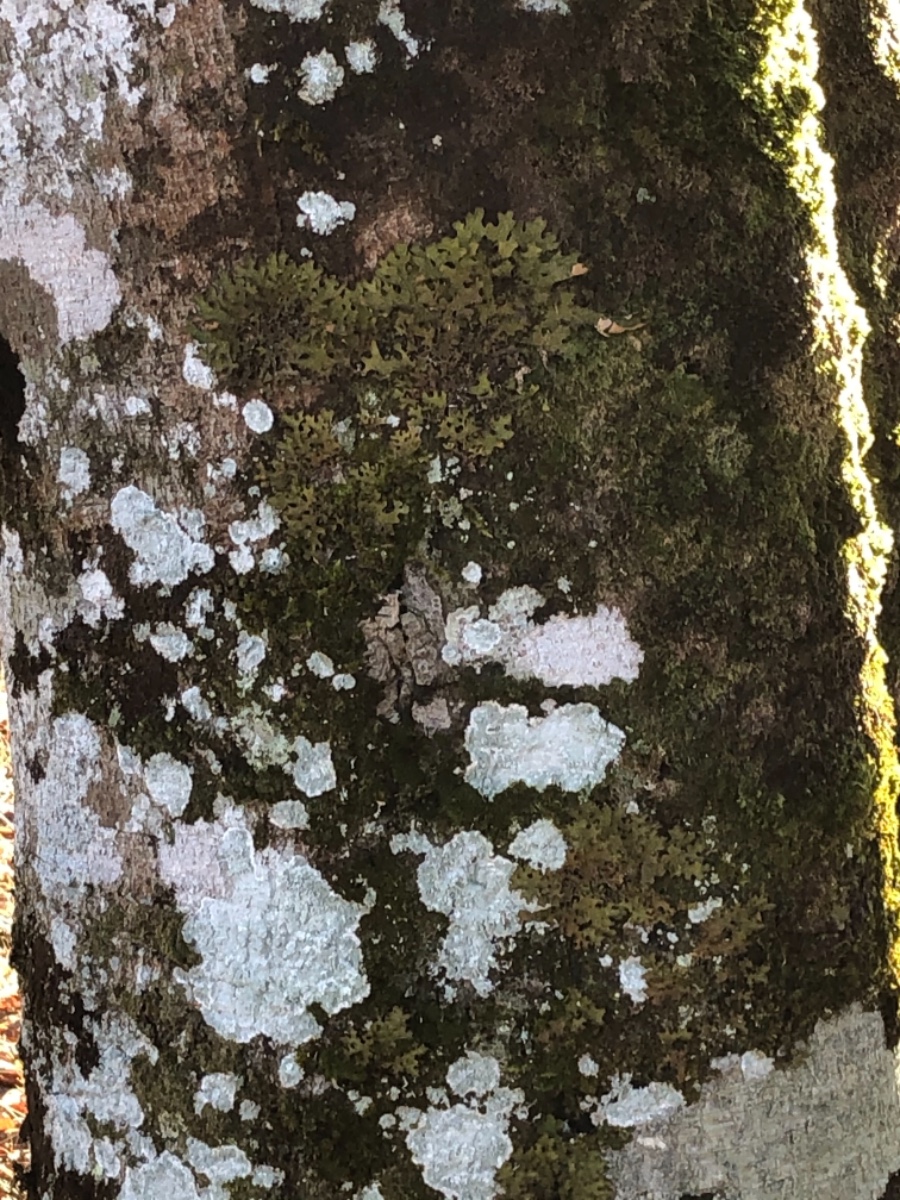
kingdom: Fungi
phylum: Ascomycota
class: Lecanoromycetes
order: Peltigerales
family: Lobariaceae
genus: Lobaria
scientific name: Lobaria pulmonaria
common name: almindelig lungelav
